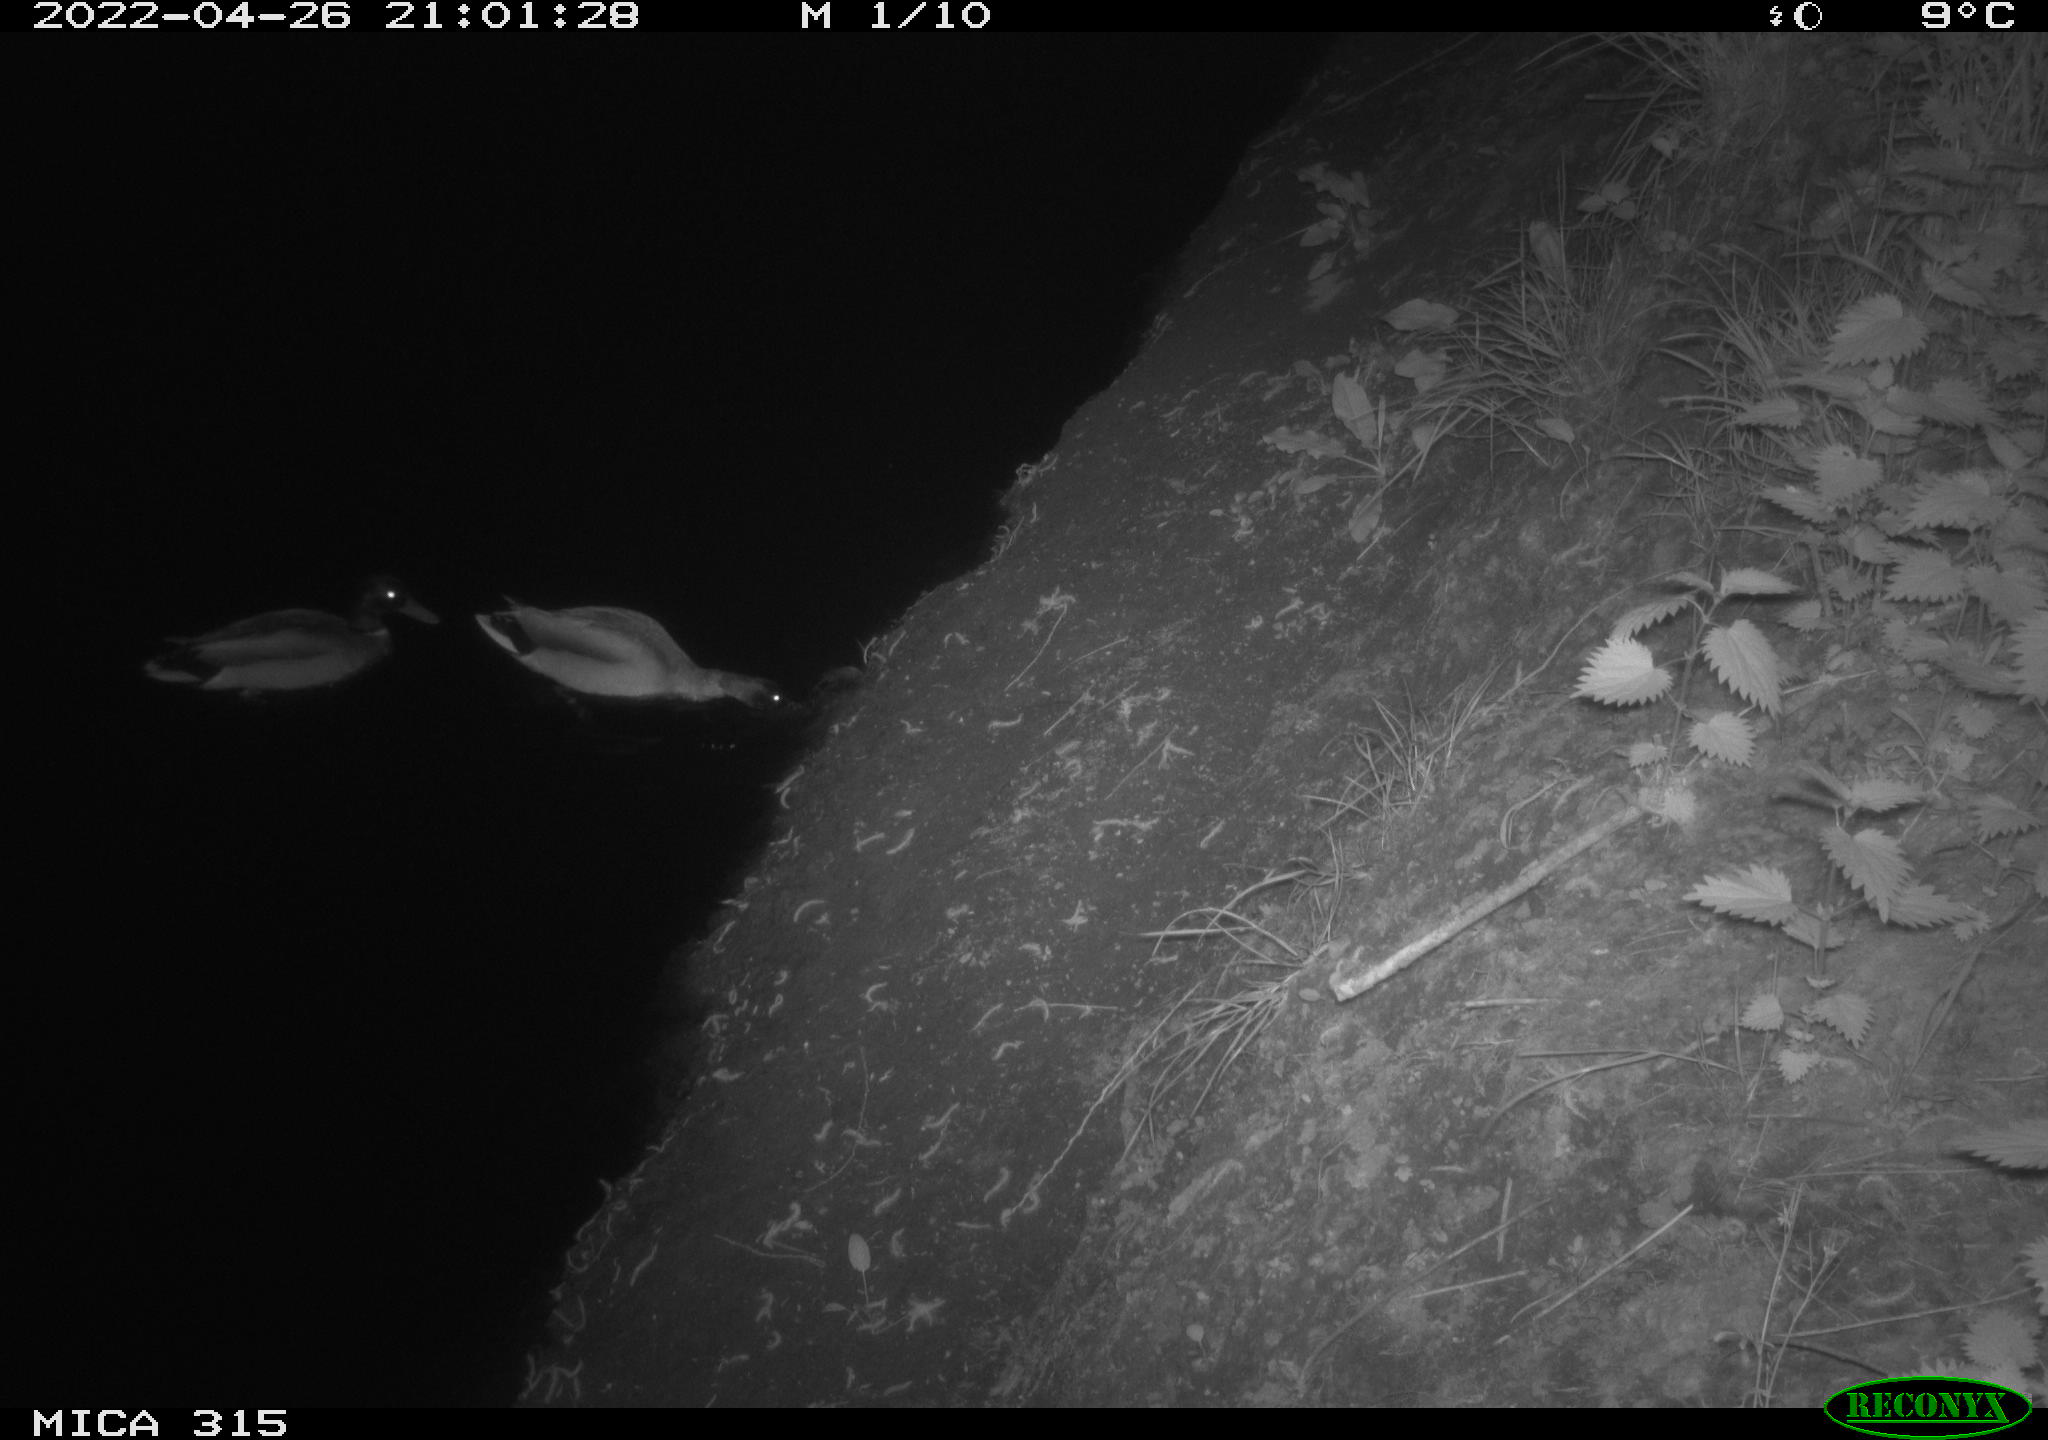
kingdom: Animalia
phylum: Chordata
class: Aves
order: Anseriformes
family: Anatidae
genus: Anas
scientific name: Anas platyrhynchos
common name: Mallard
